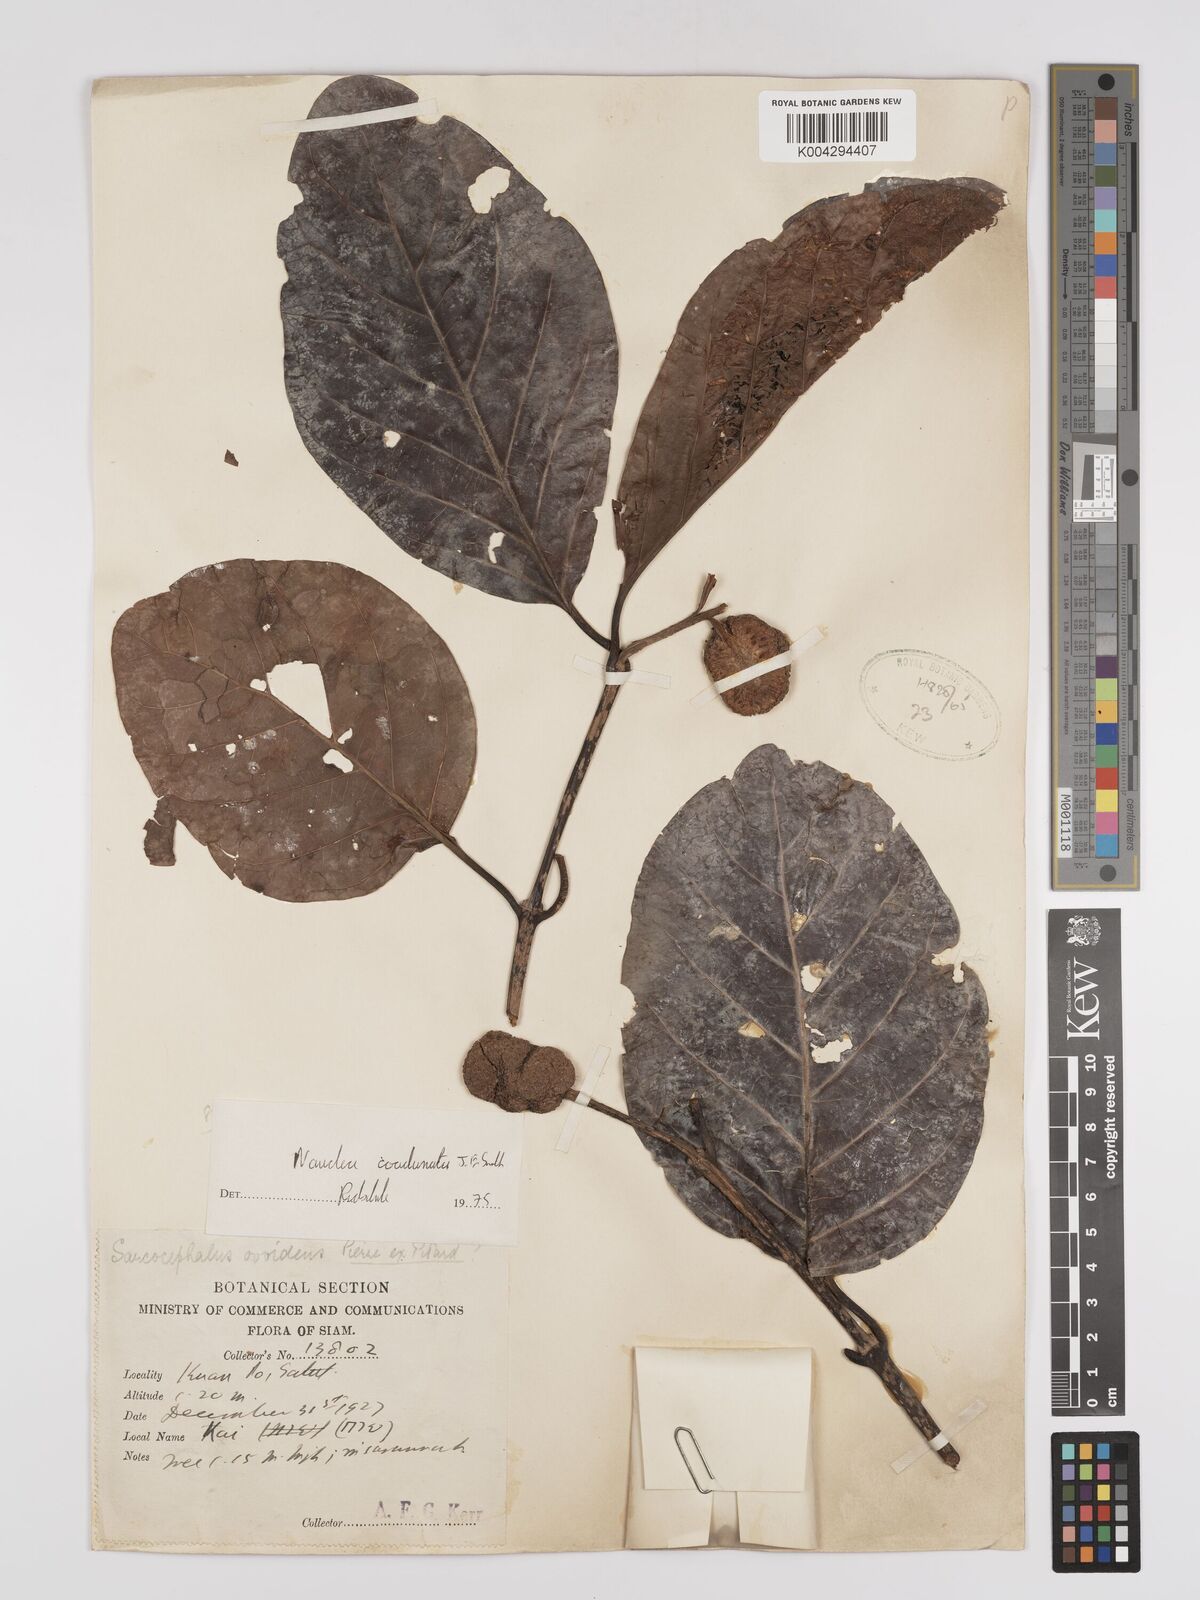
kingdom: Plantae
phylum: Tracheophyta
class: Magnoliopsida
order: Gentianales
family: Rubiaceae
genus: Nauclea
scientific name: Nauclea orientalis
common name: Leichhardt-pine
